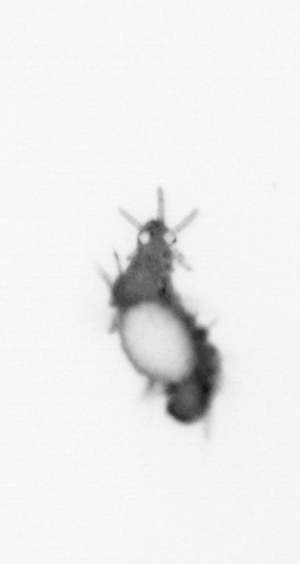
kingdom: Animalia
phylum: Annelida
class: Polychaeta
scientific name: Polychaeta
